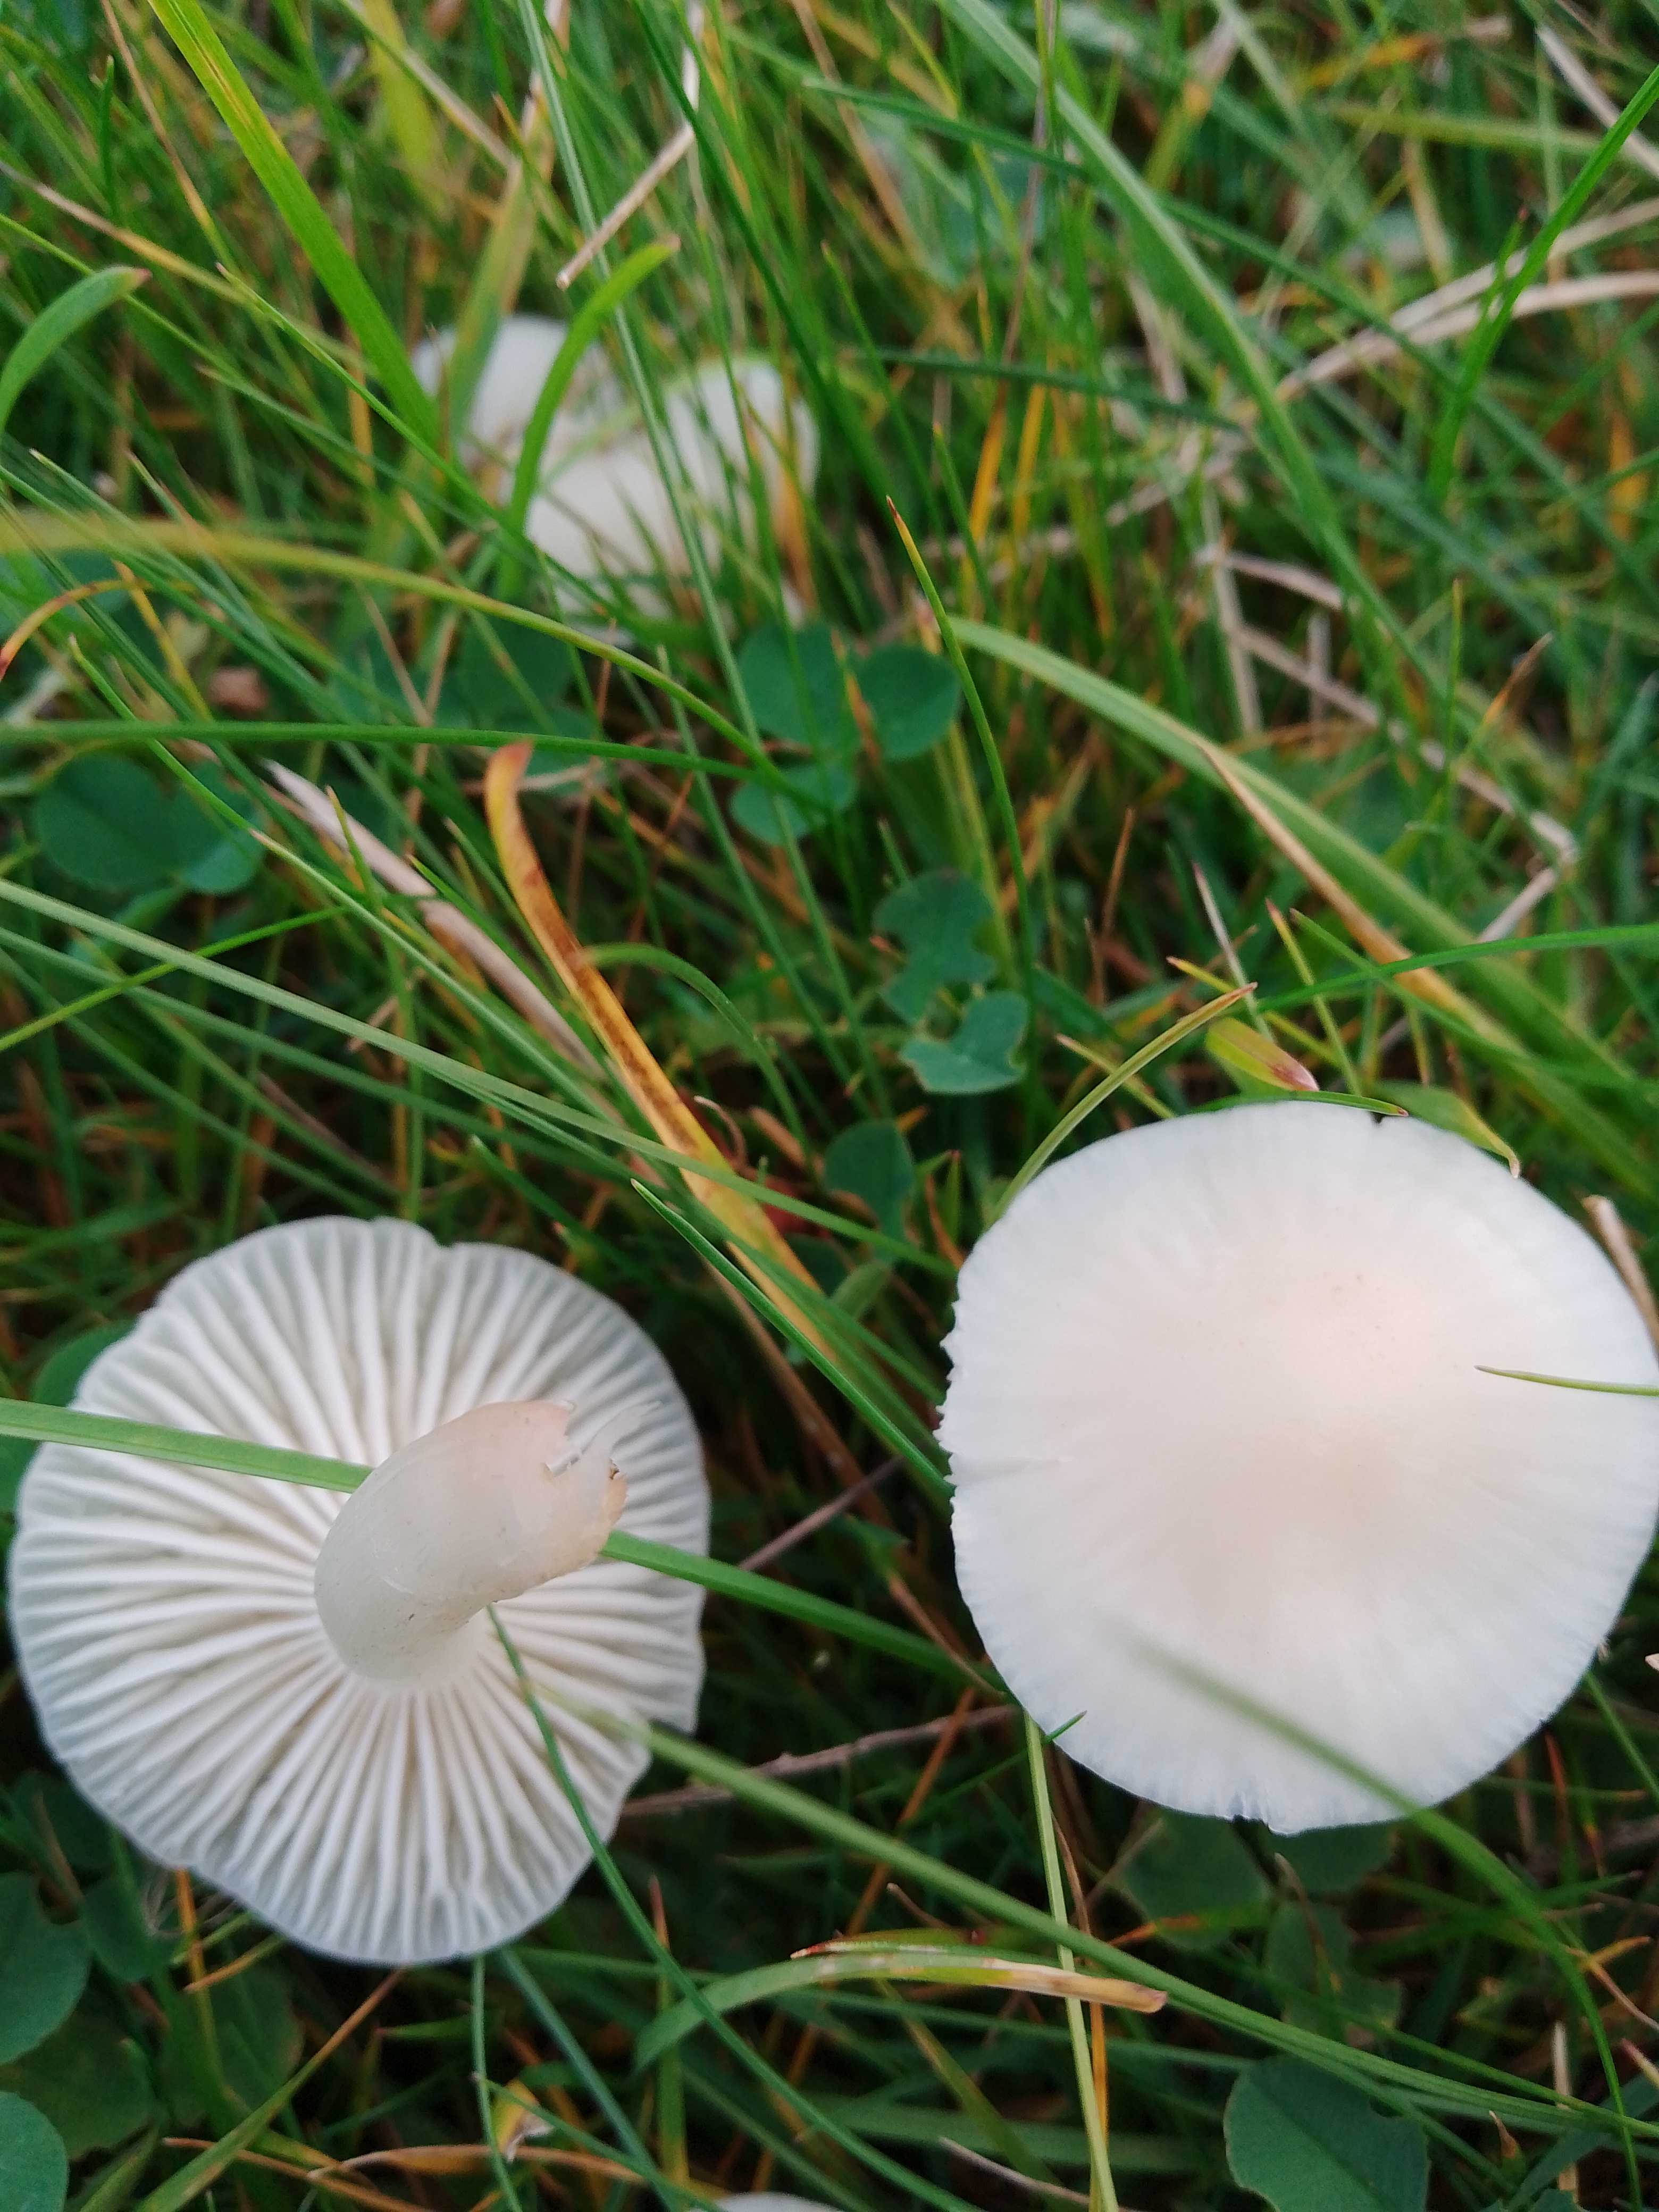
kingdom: Fungi
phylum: Basidiomycota
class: Agaricomycetes
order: Agaricales
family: Hygrophoraceae
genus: Cuphophyllus
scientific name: Cuphophyllus virgineus
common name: snehvid vokshat
